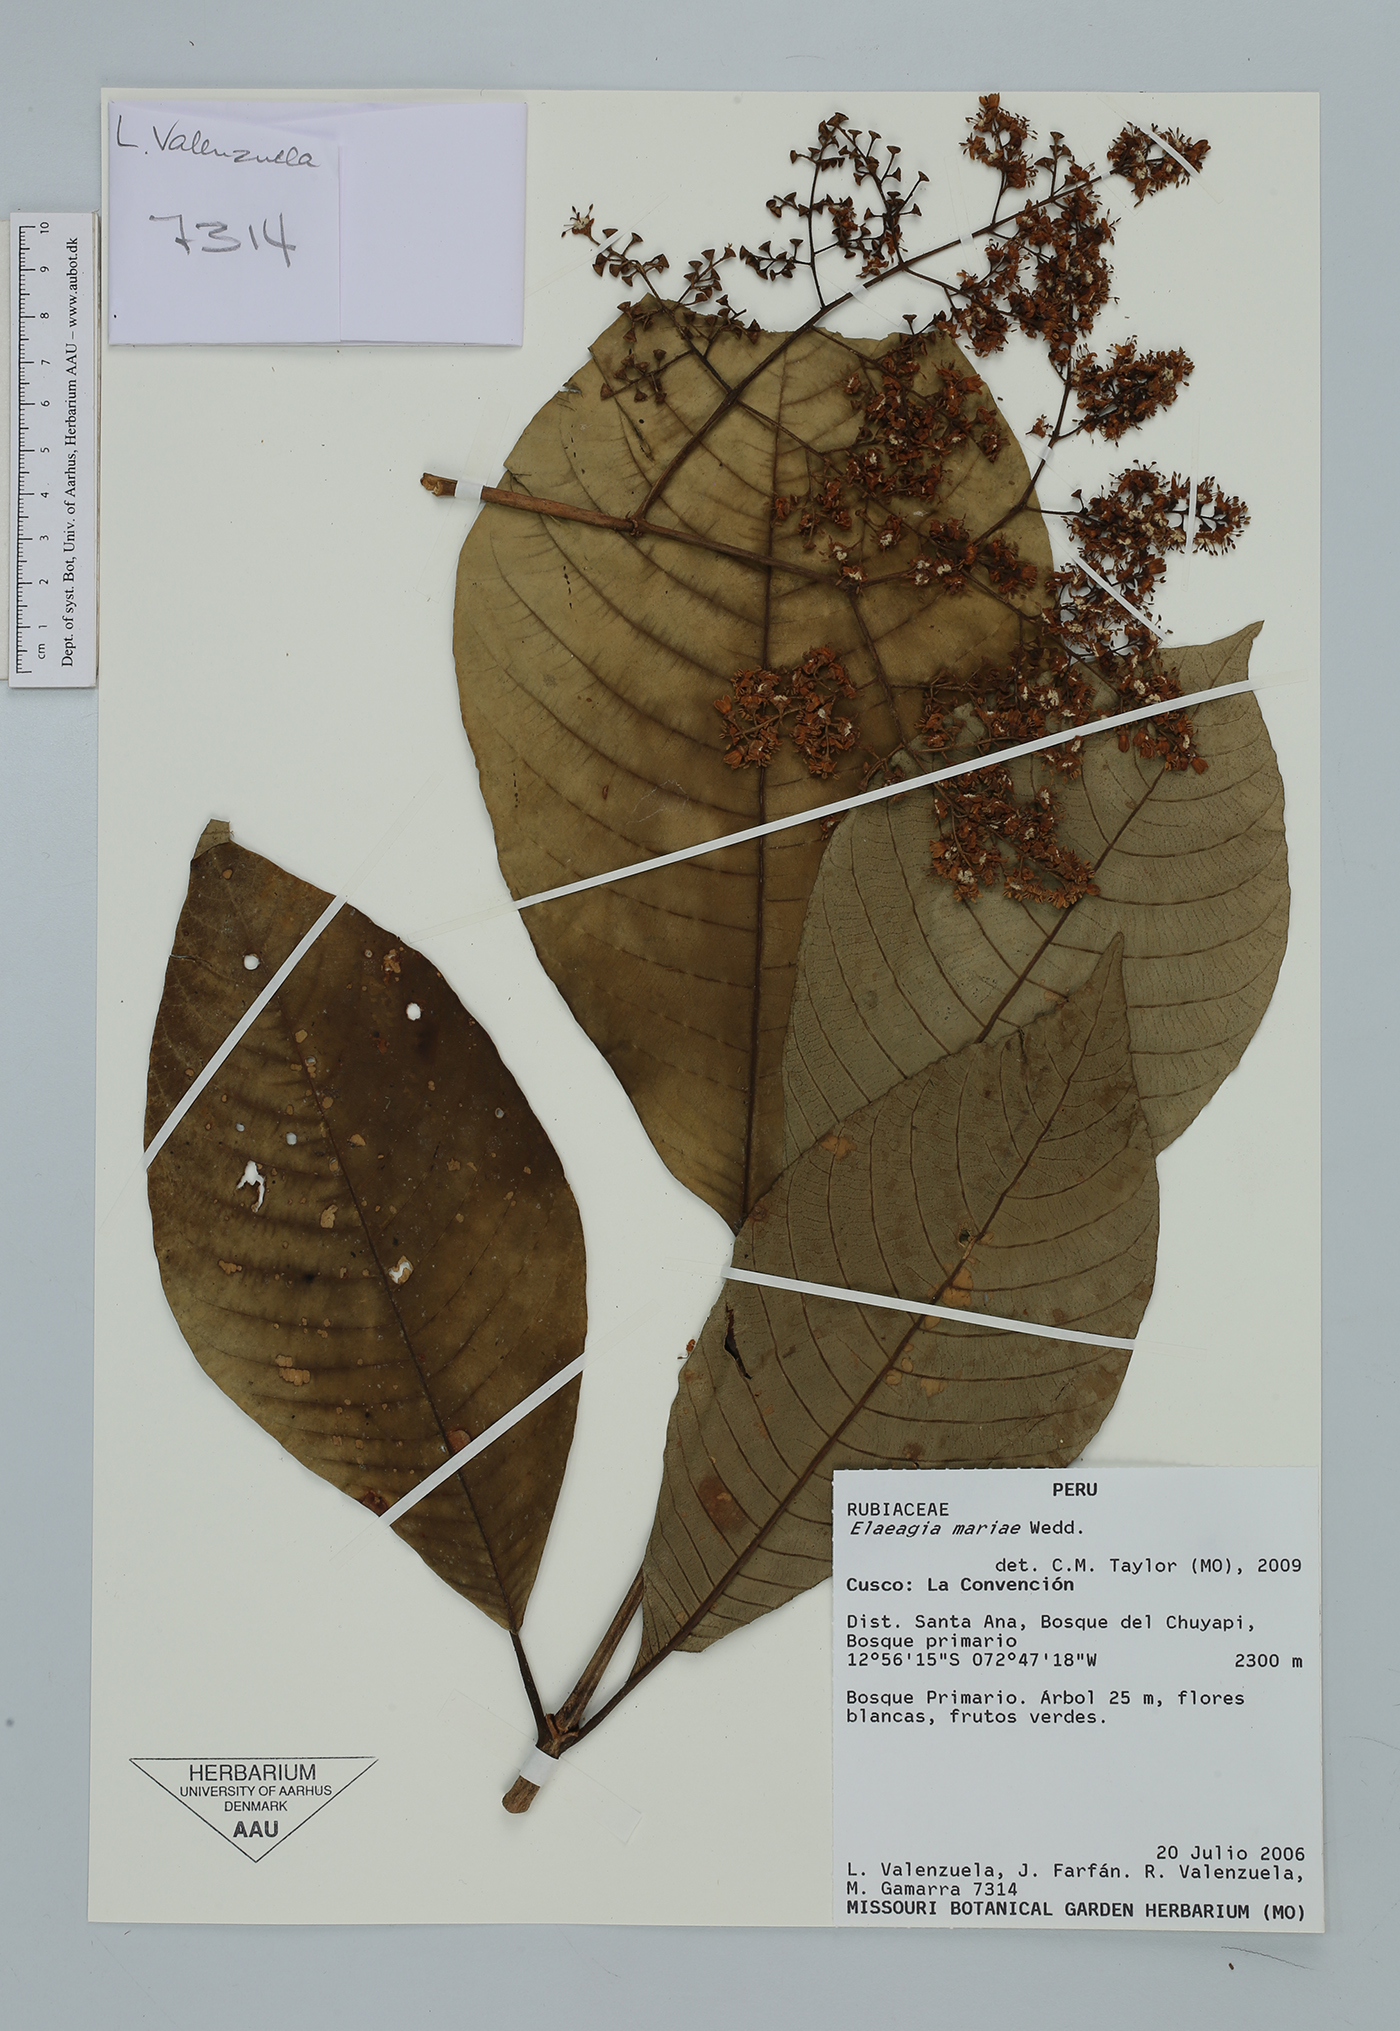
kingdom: Plantae
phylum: Tracheophyta
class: Magnoliopsida
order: Gentianales
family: Rubiaceae
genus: Elaeagia
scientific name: Elaeagia mariae
